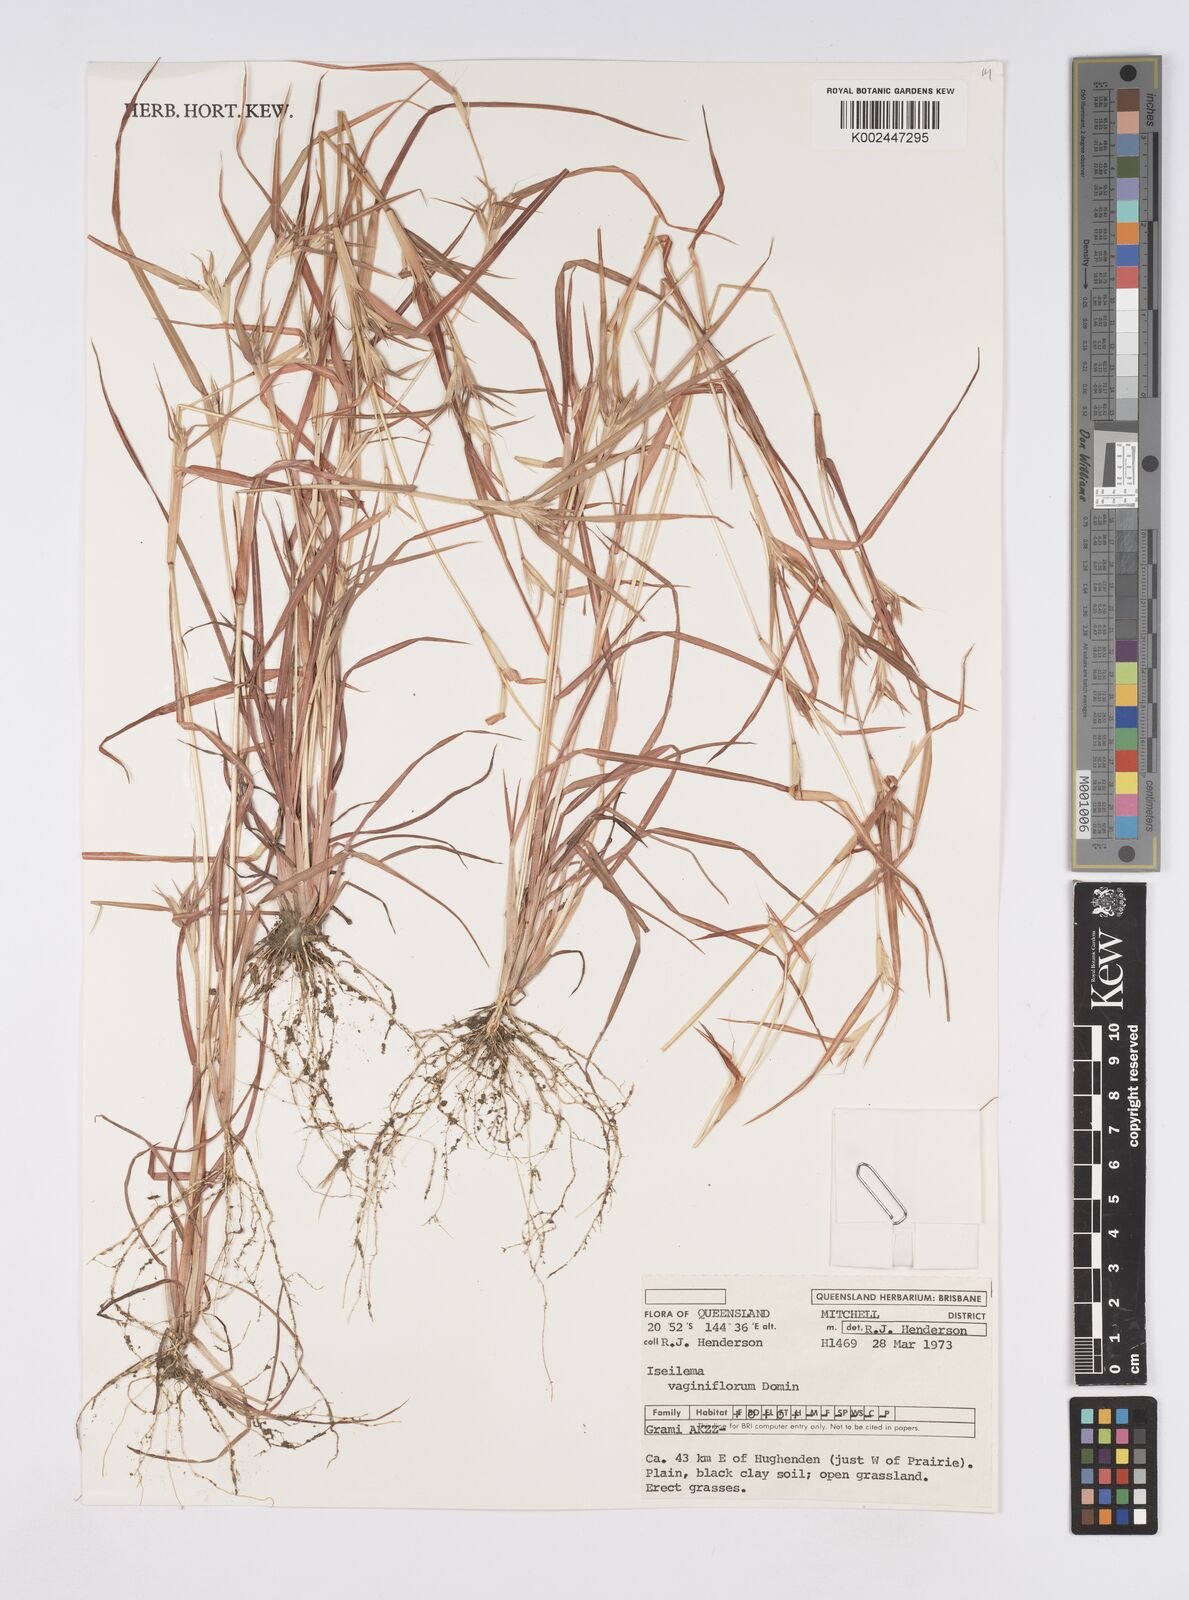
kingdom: Plantae
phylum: Tracheophyta
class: Liliopsida
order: Poales
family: Poaceae
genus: Iseilema
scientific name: Iseilema vaginiflorum
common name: Red flinders grass
